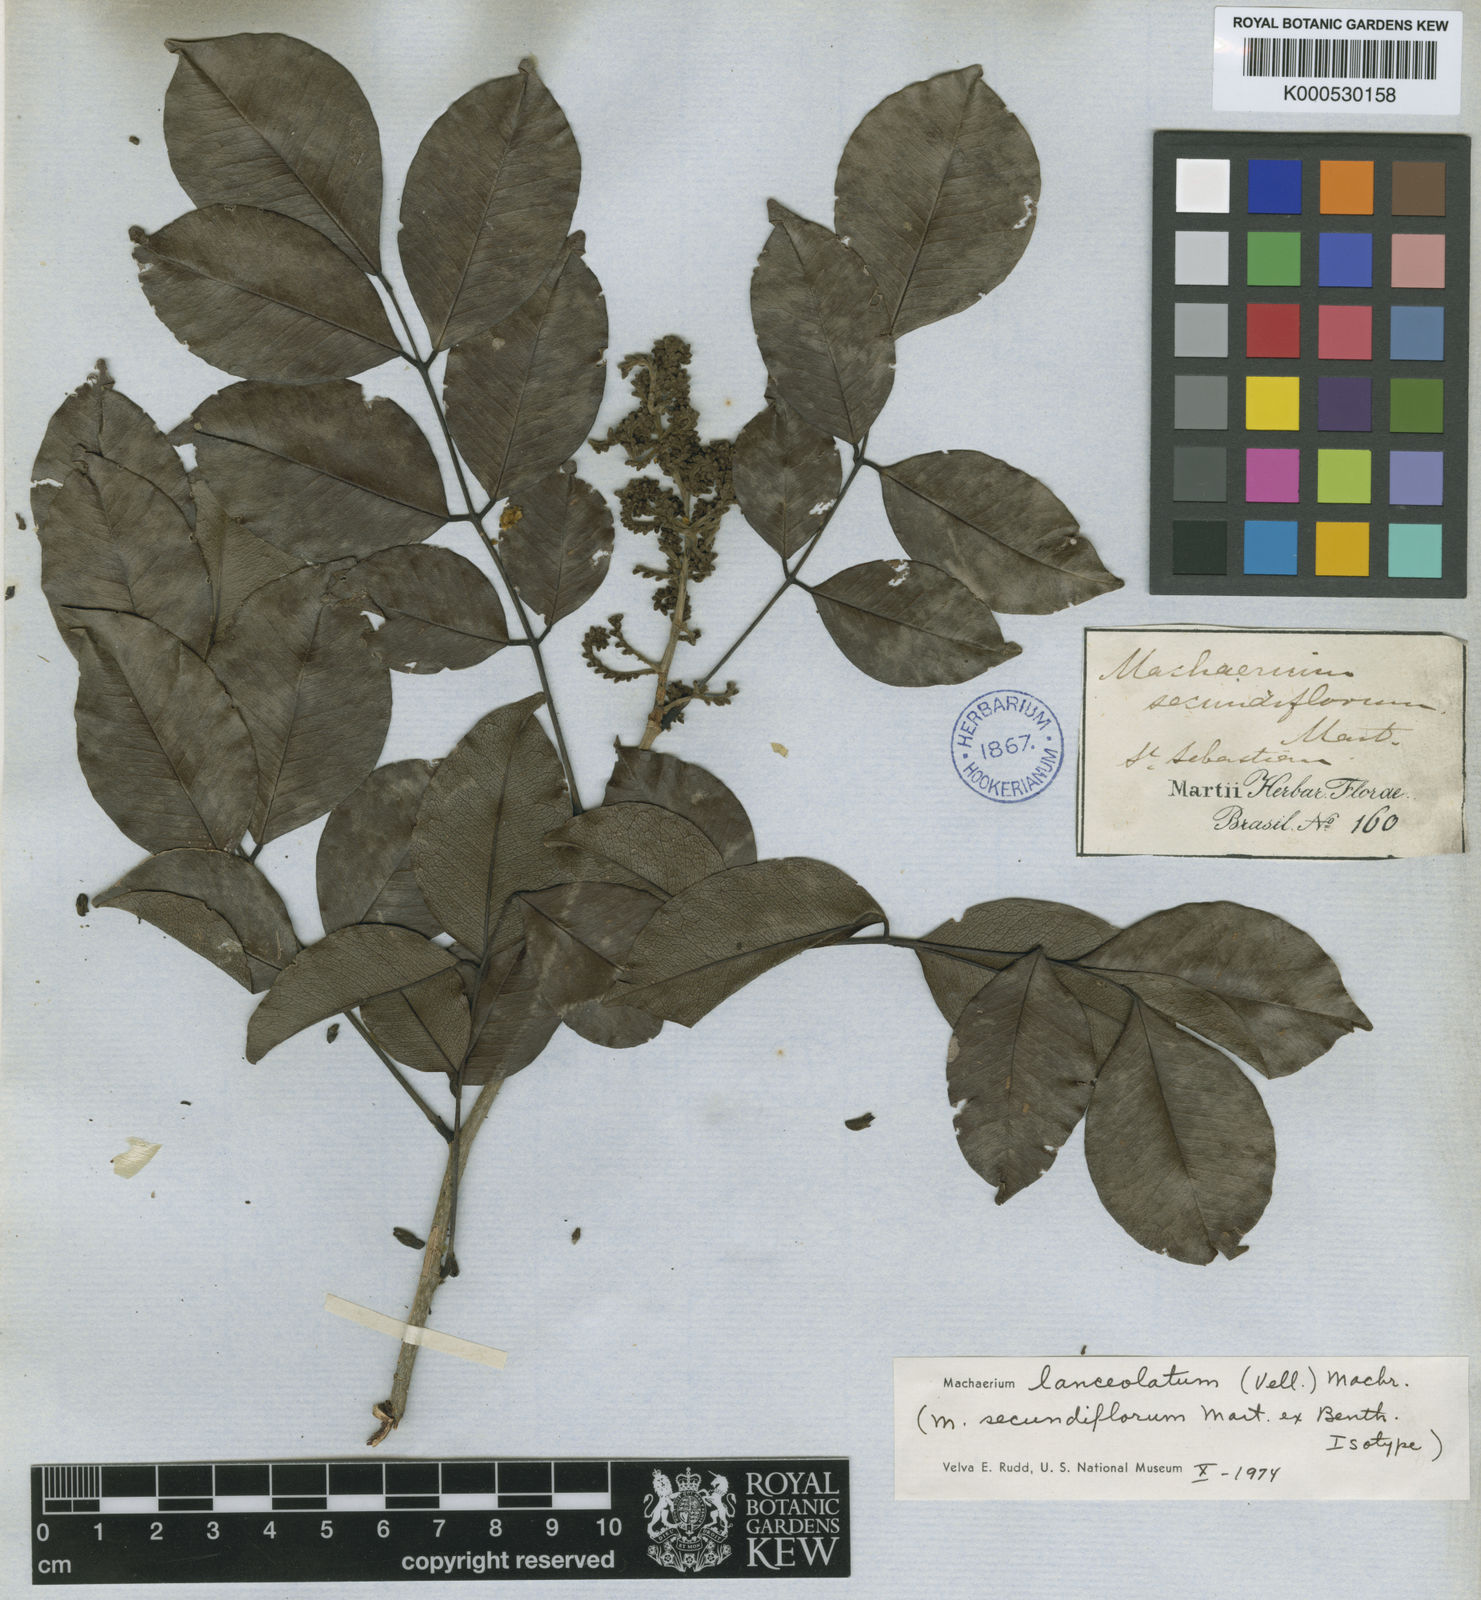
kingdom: Plantae
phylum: Tracheophyta
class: Magnoliopsida
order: Fabales
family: Fabaceae
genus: Machaerium
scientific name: Machaerium lanceolatum
